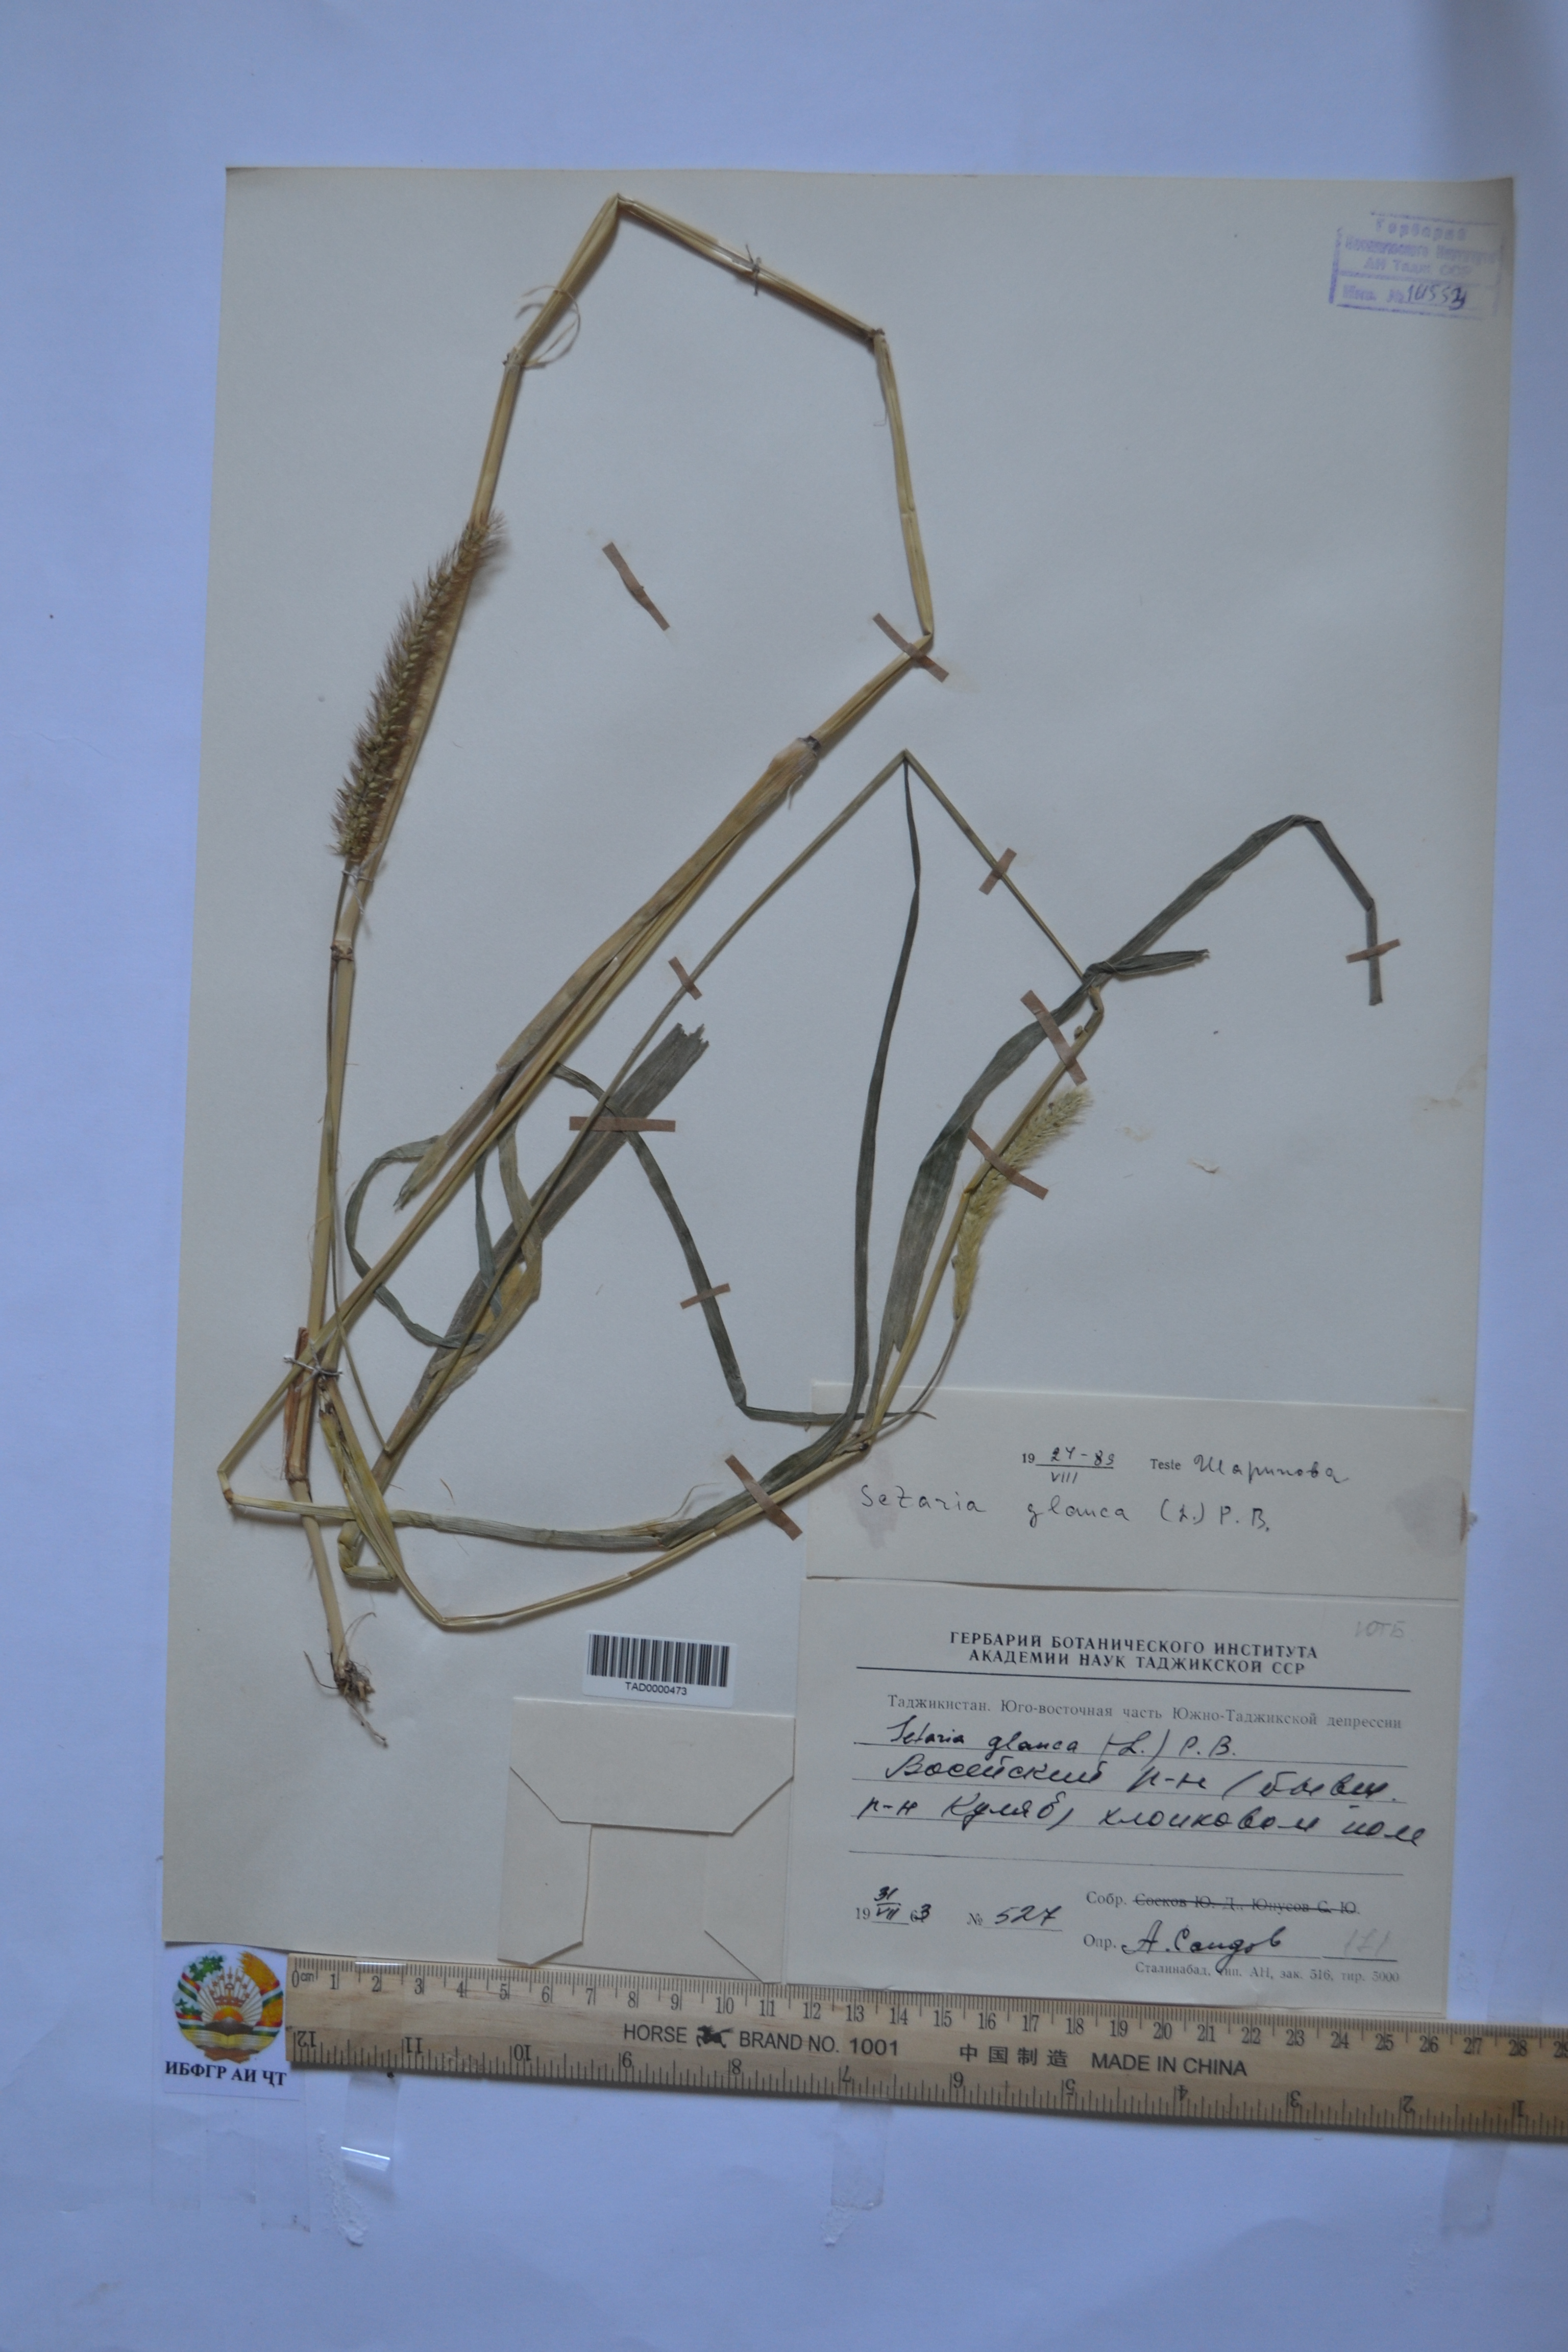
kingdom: Plantae
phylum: Tracheophyta
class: Liliopsida
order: Poales
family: Poaceae
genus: Cenchrus
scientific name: Cenchrus americanus
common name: Pearl millet
